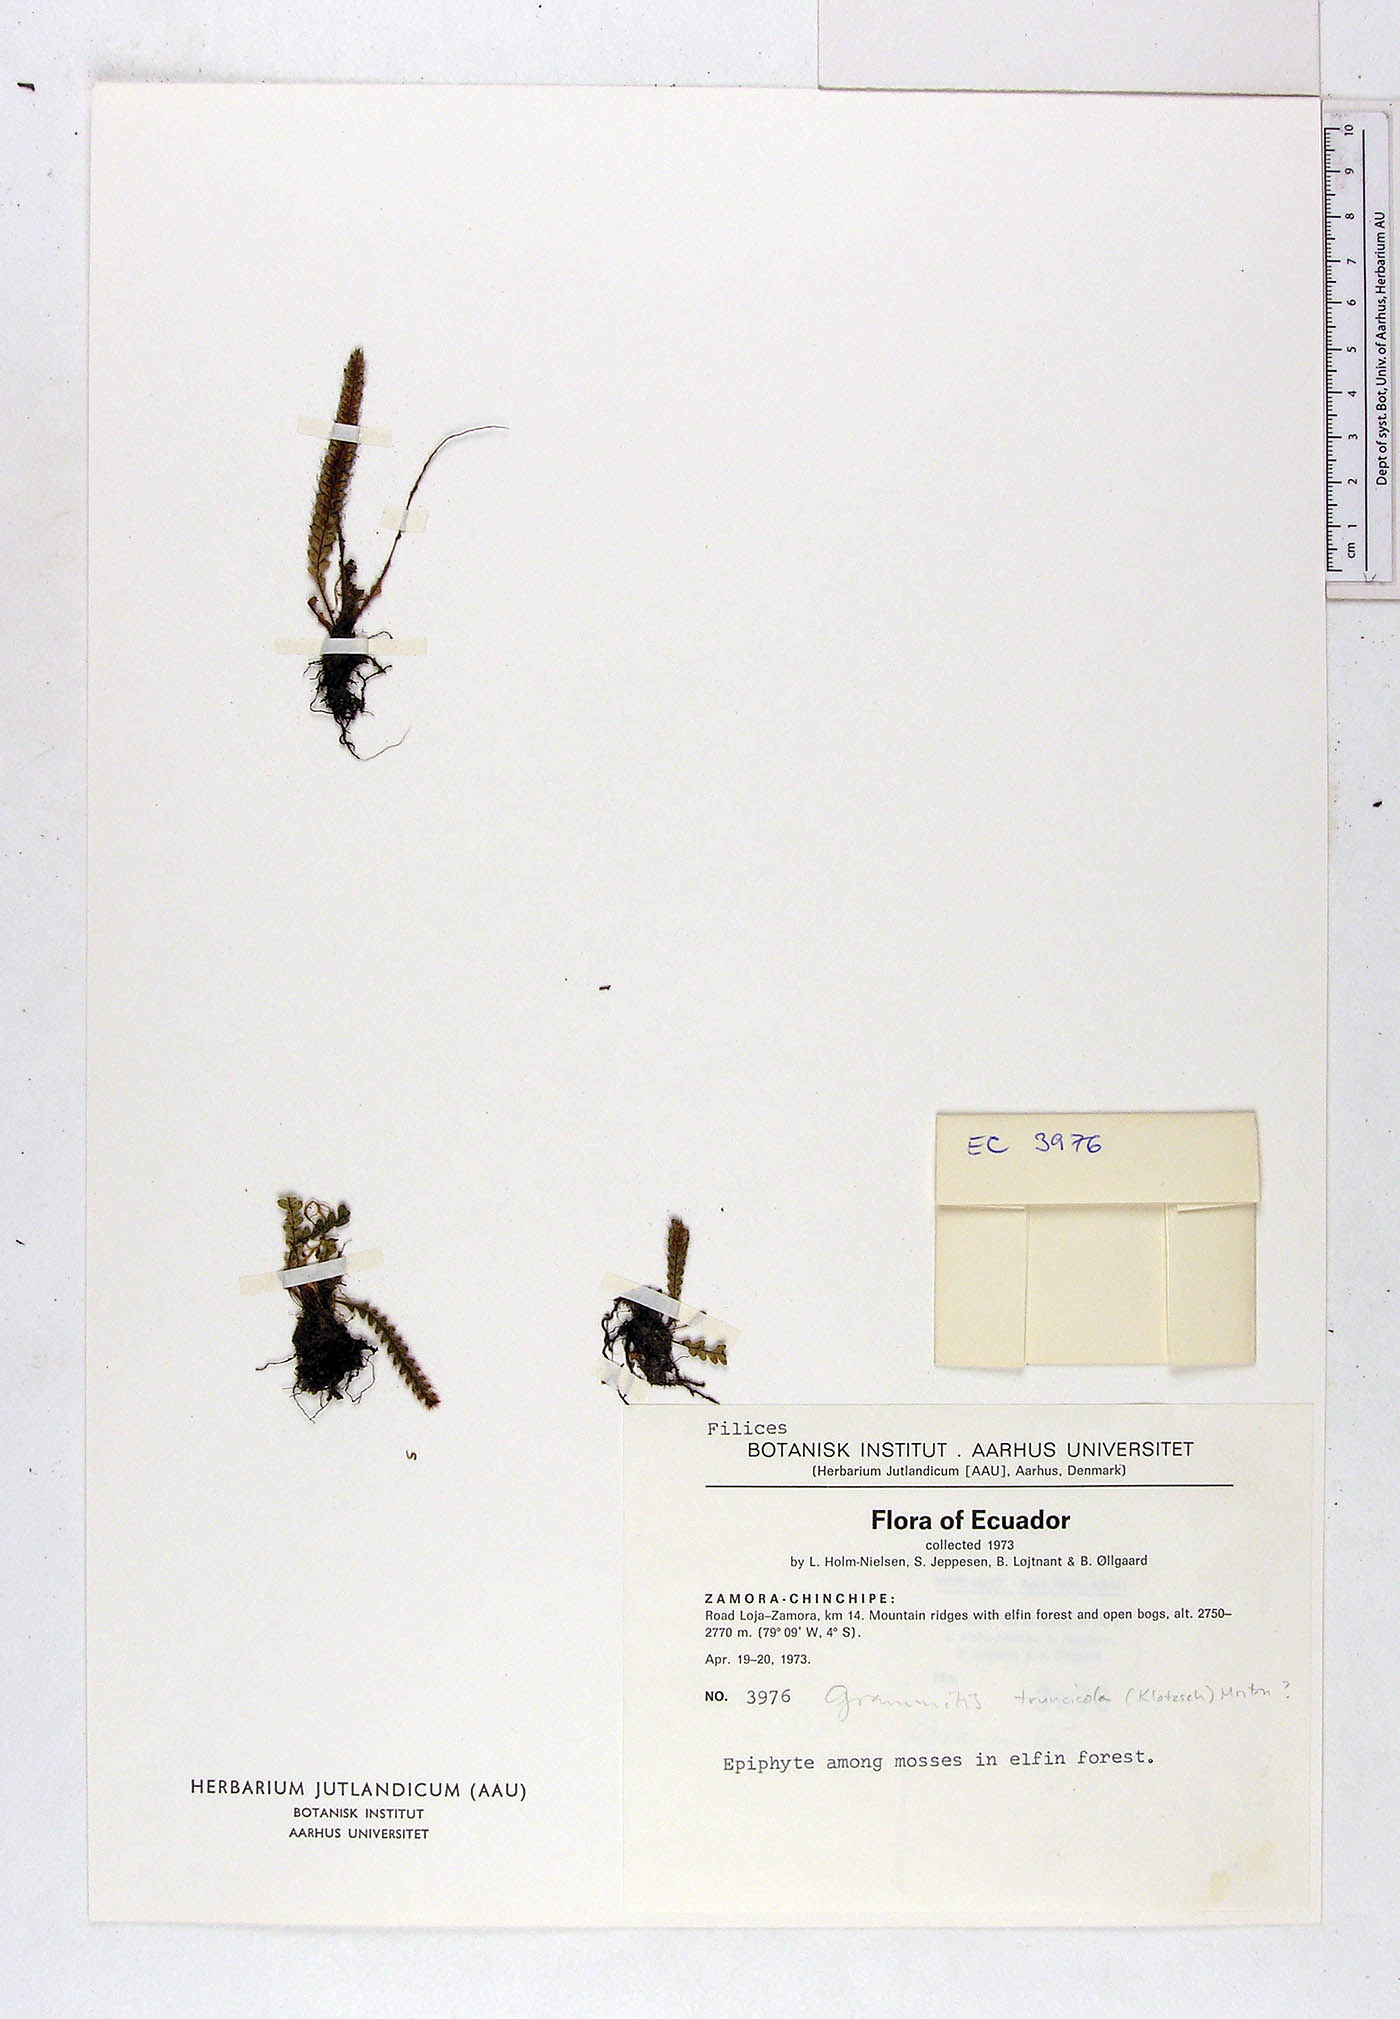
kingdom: Plantae
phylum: Tracheophyta
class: Polypodiopsida
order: Polypodiales
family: Polypodiaceae
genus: Moranopteris
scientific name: Moranopteris truncicola
